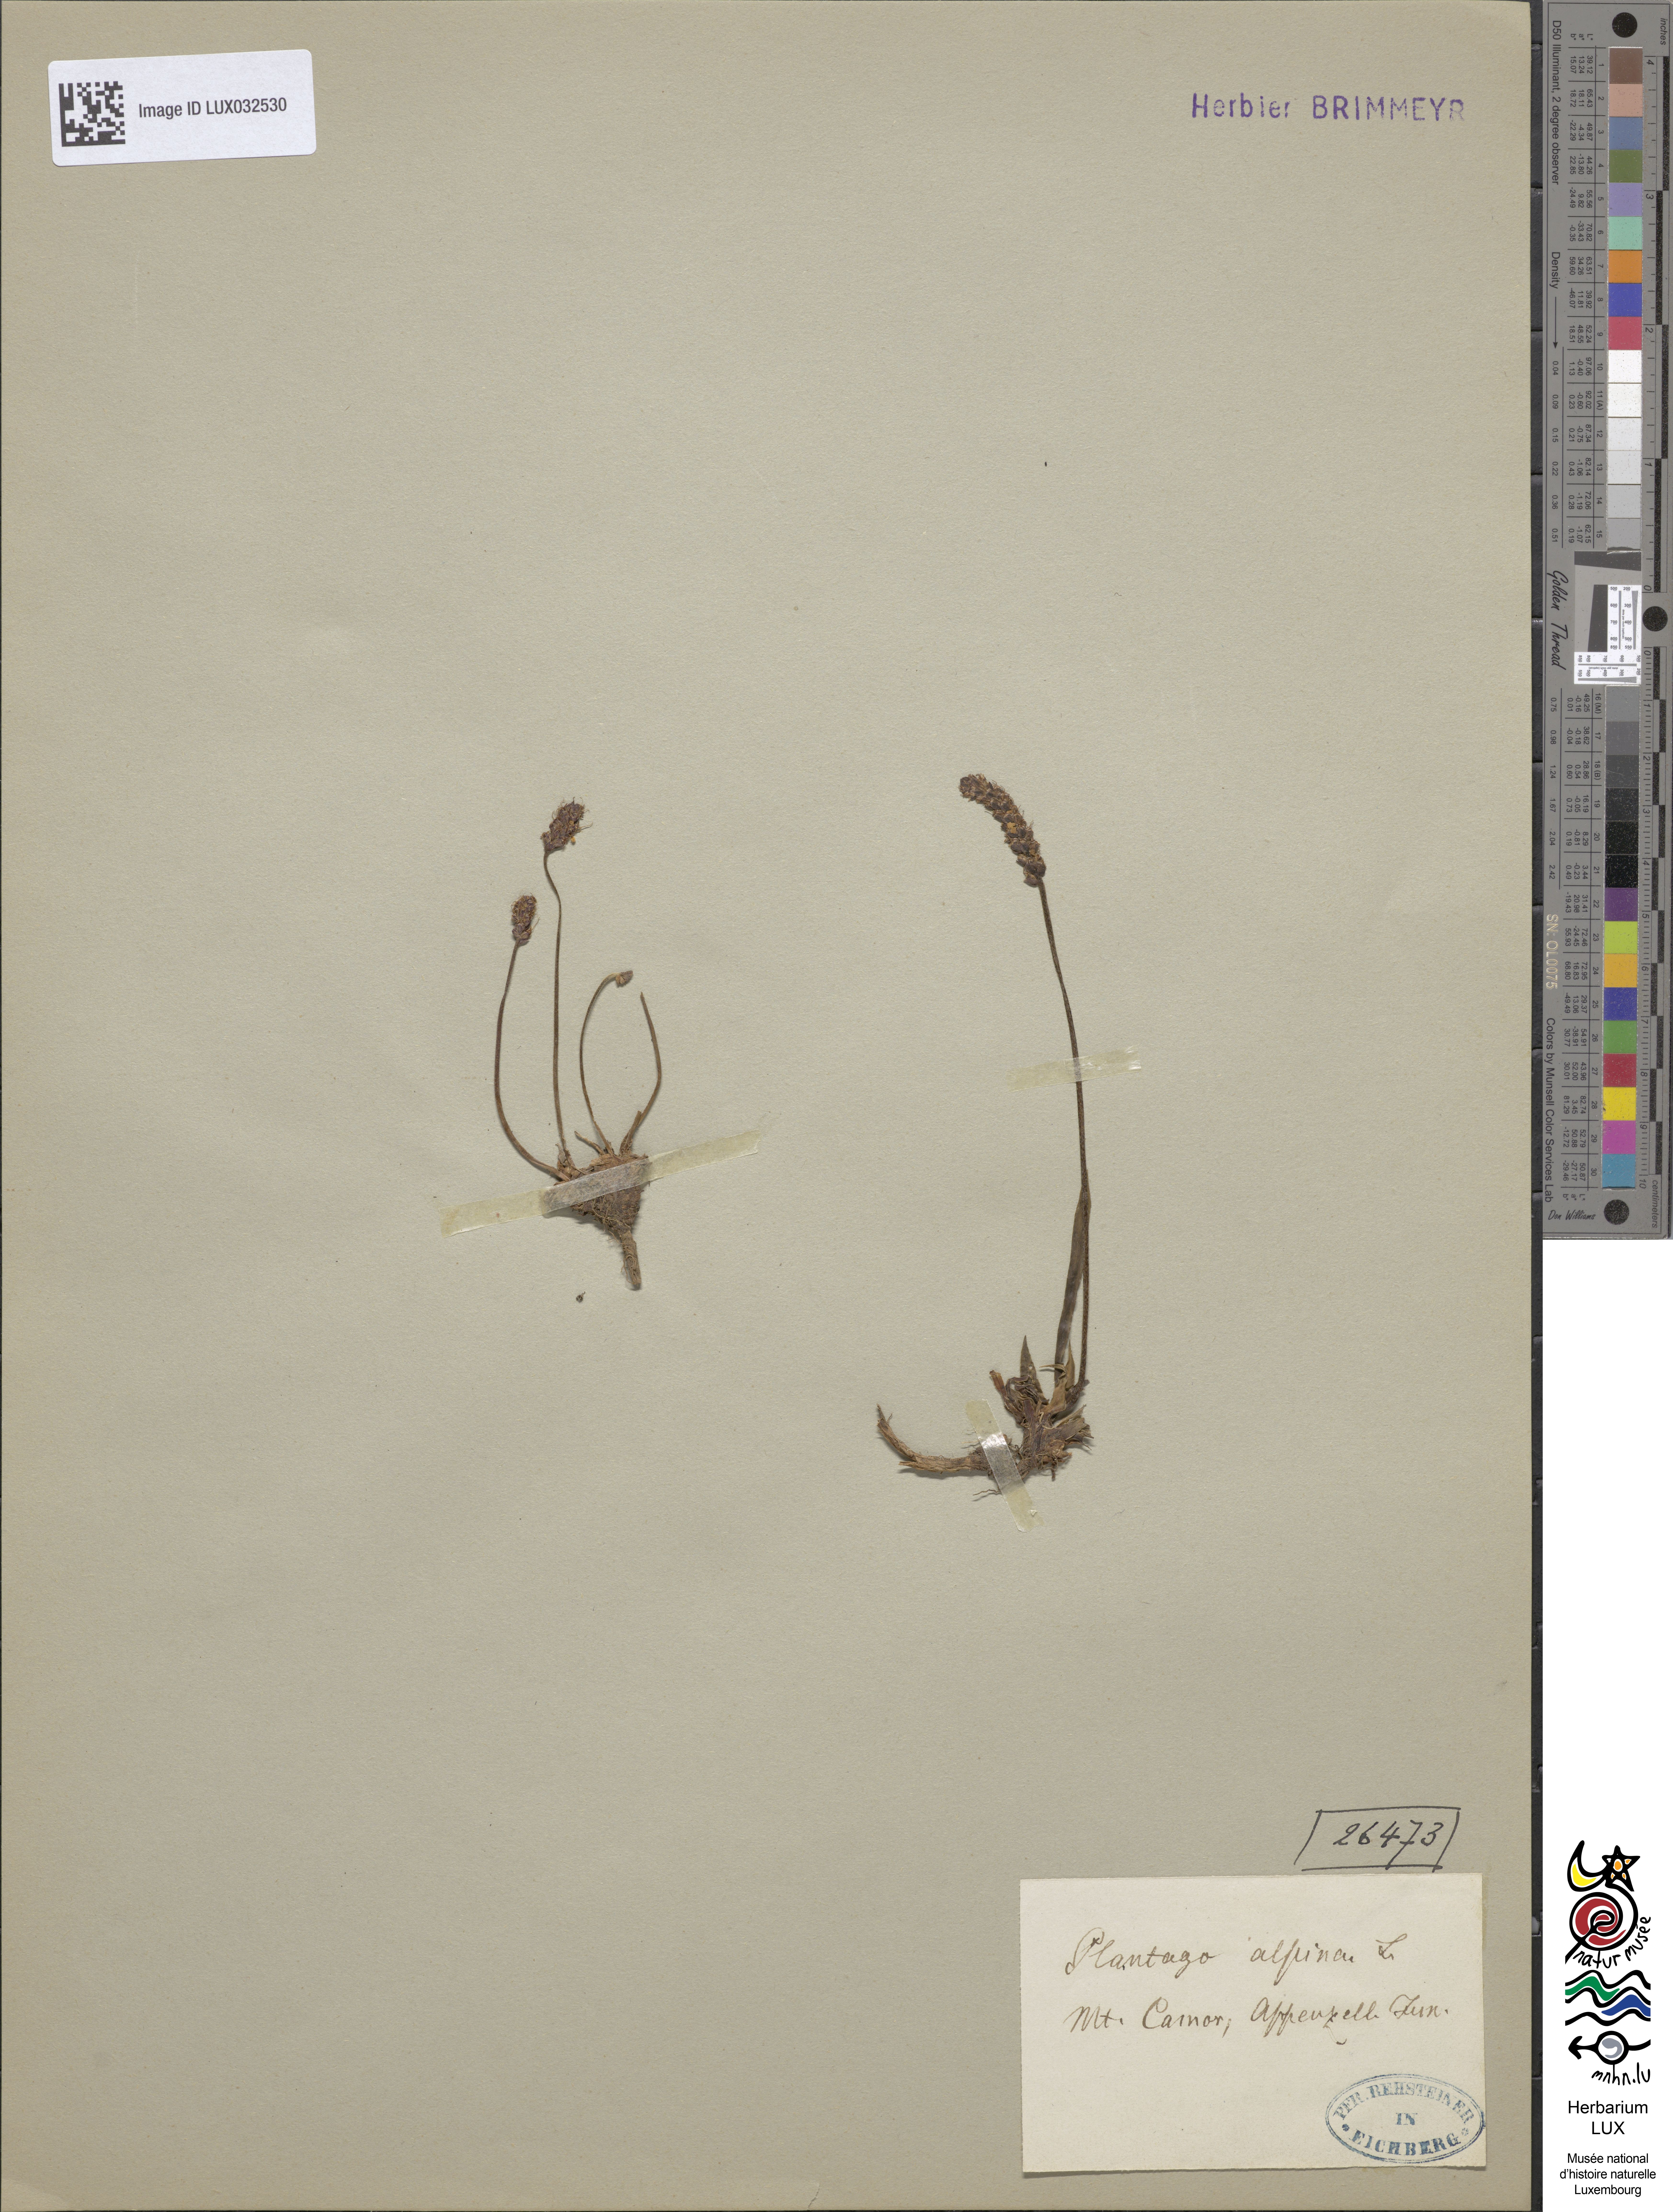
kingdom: Plantae
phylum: Tracheophyta
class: Magnoliopsida
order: Lamiales
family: Plantaginaceae
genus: Plantago
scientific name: Plantago alpina
